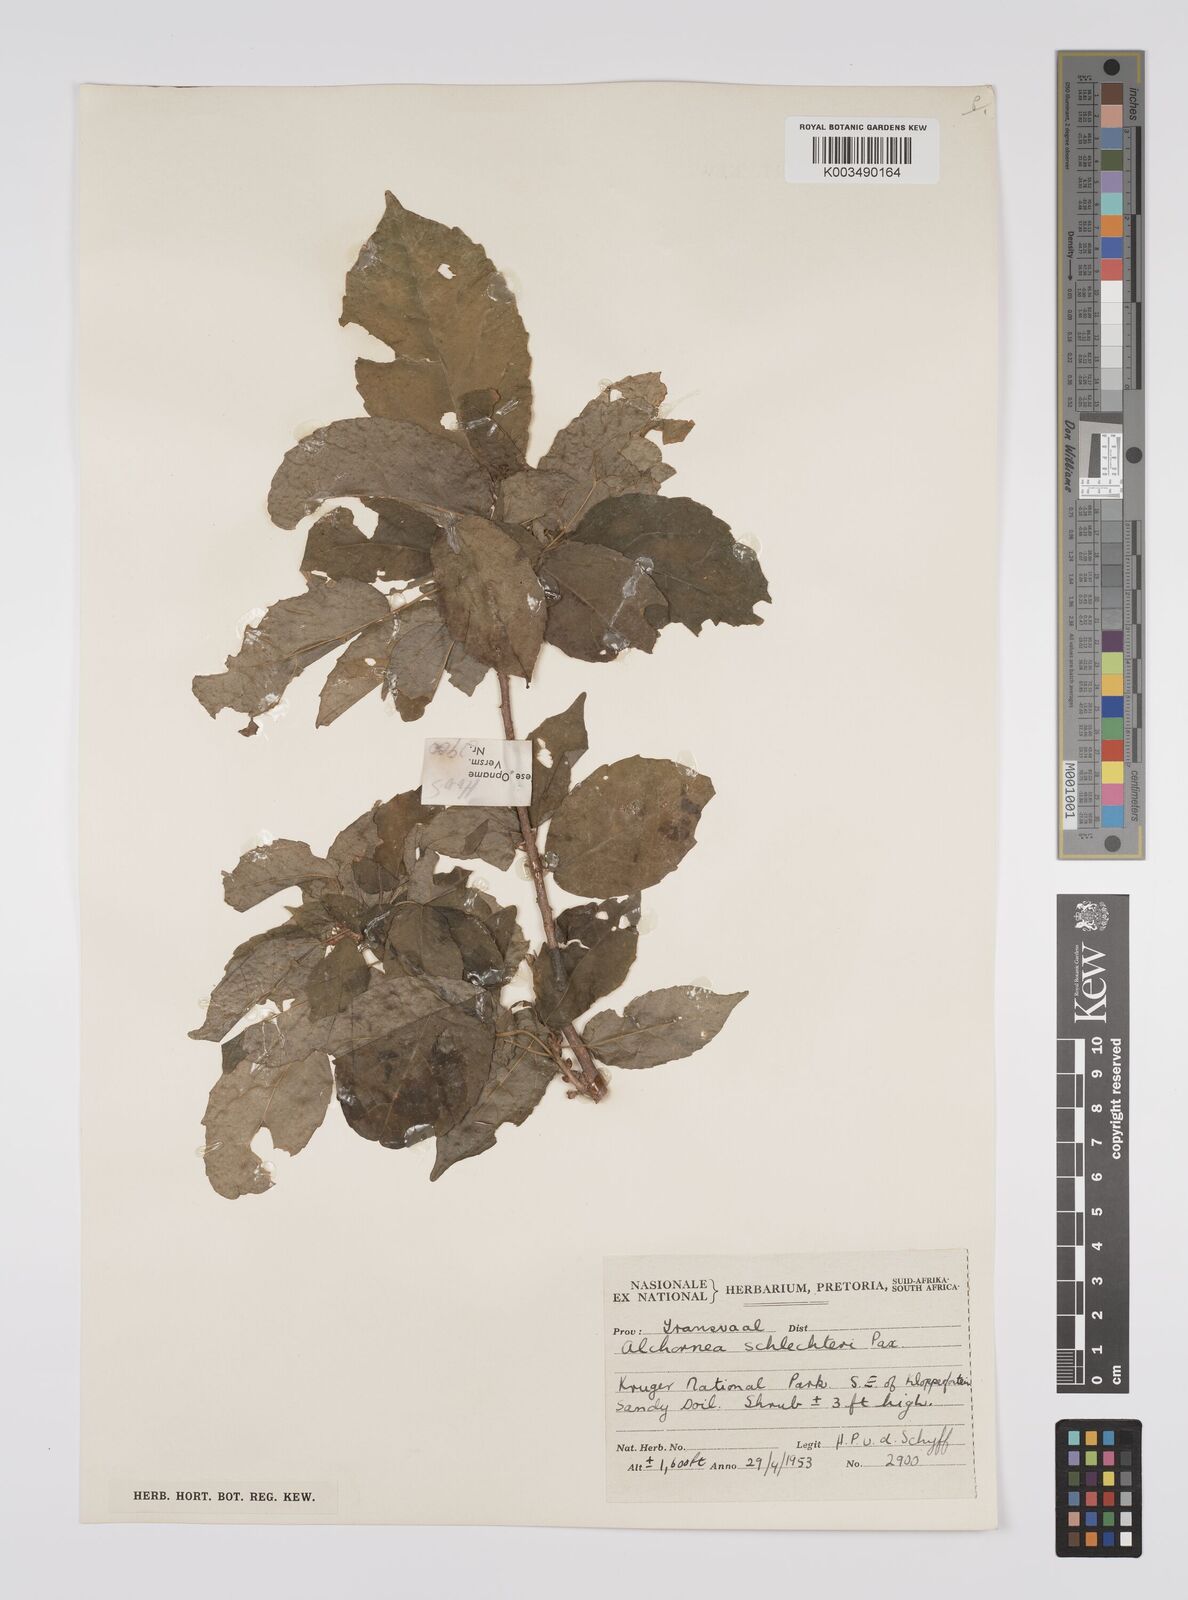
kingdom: Plantae
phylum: Tracheophyta
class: Magnoliopsida
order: Malpighiales
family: Euphorbiaceae
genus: Alchornea
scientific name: Alchornea laxiflora
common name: Lowveld bead-string
